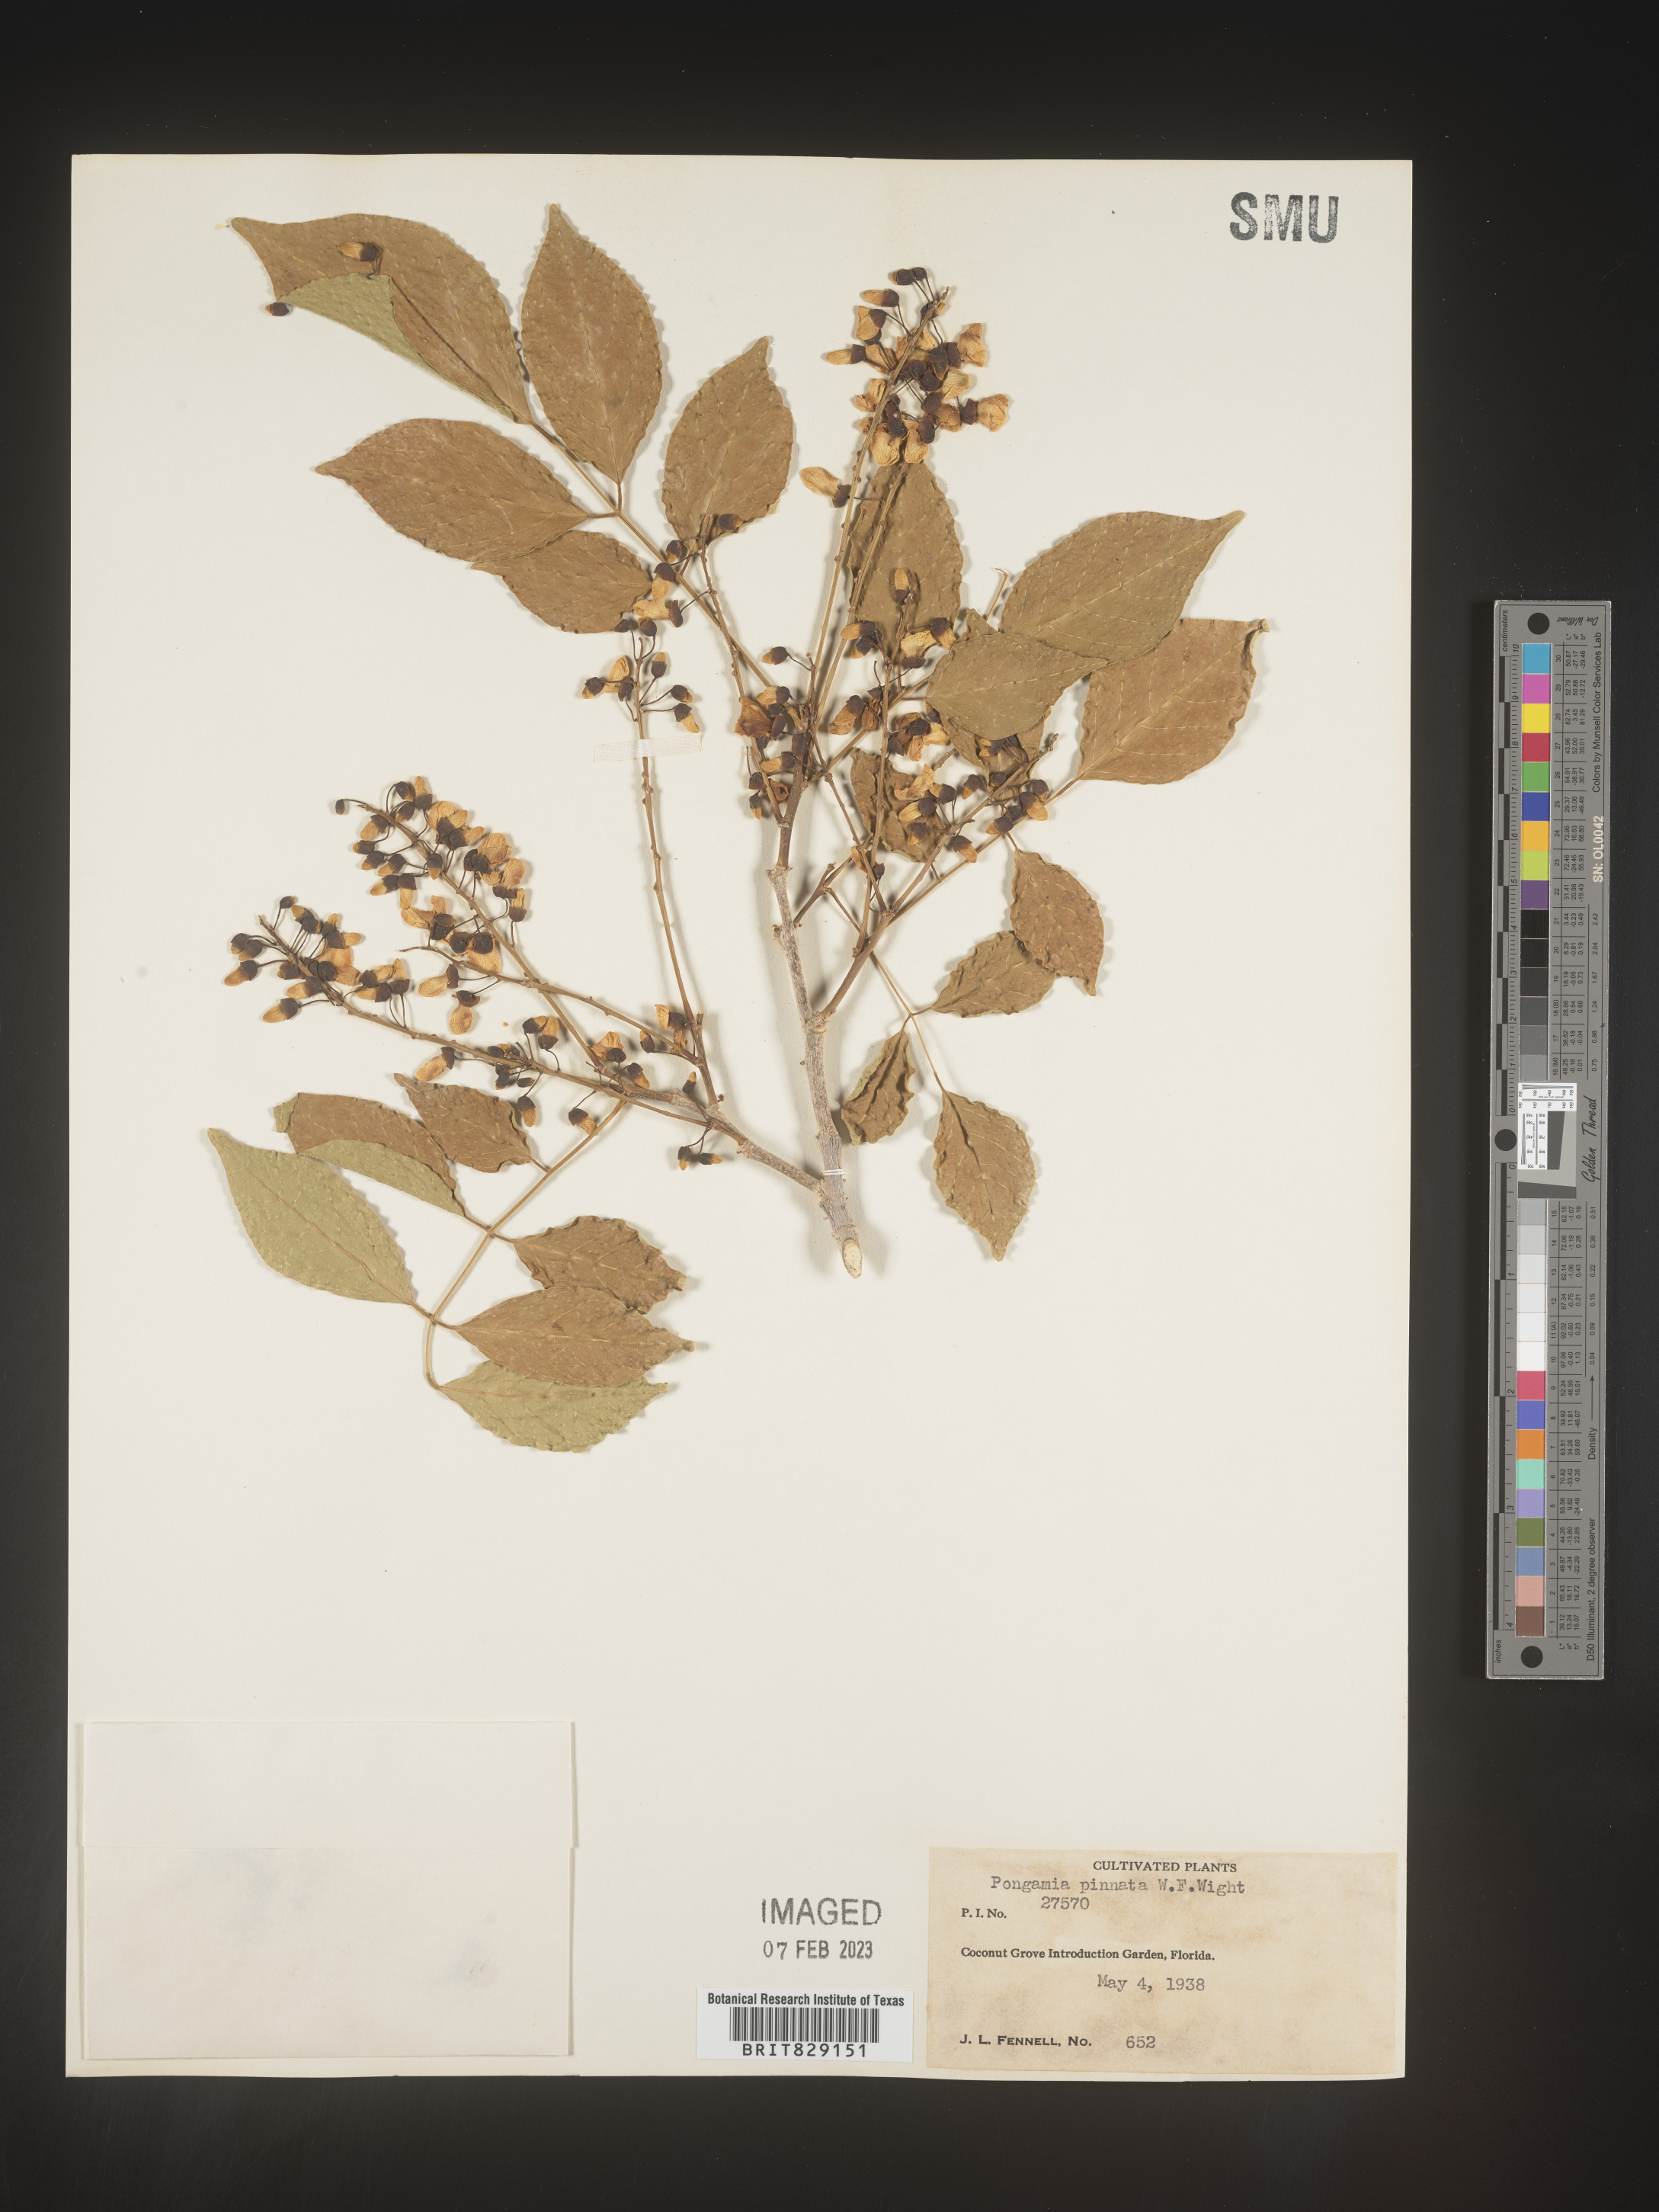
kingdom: Plantae
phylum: Tracheophyta
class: Magnoliopsida
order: Fabales
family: Fabaceae
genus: Pongamia
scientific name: Pongamia
